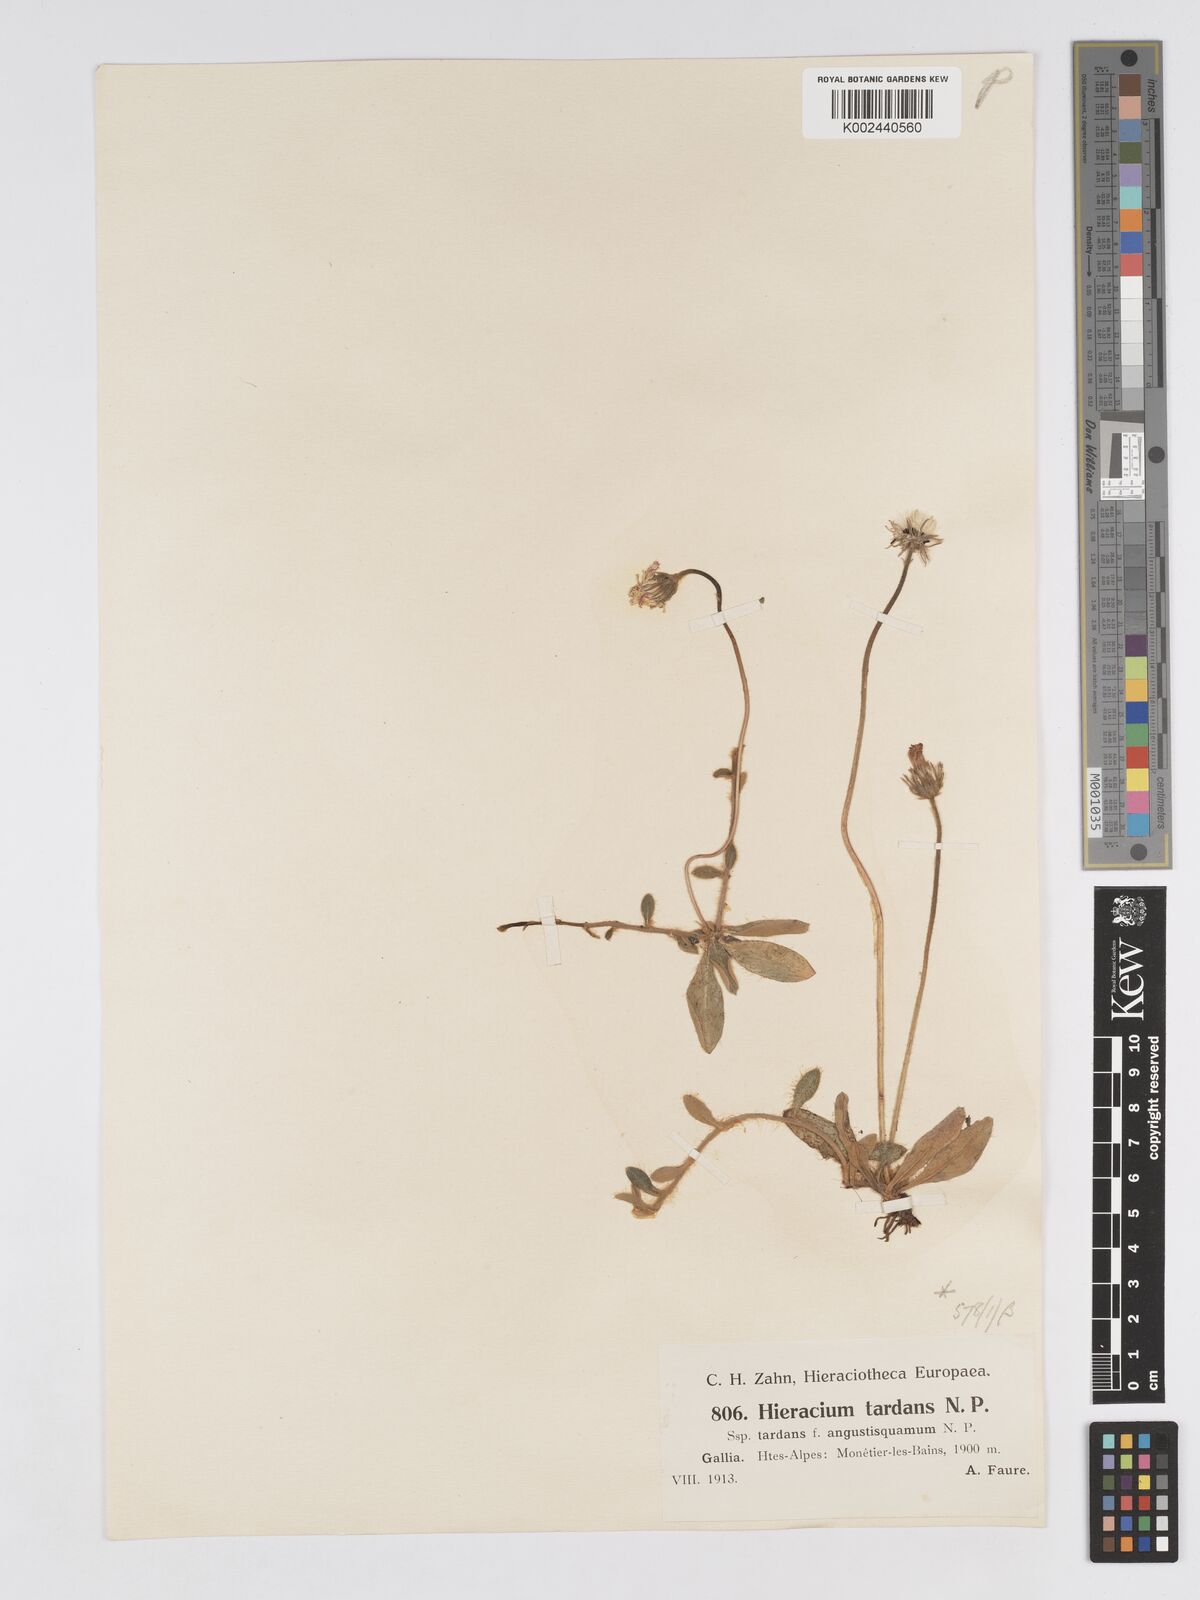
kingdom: Plantae
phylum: Tracheophyta
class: Magnoliopsida
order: Asterales
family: Asteraceae
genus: Pilosella
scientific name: Pilosella tardans
